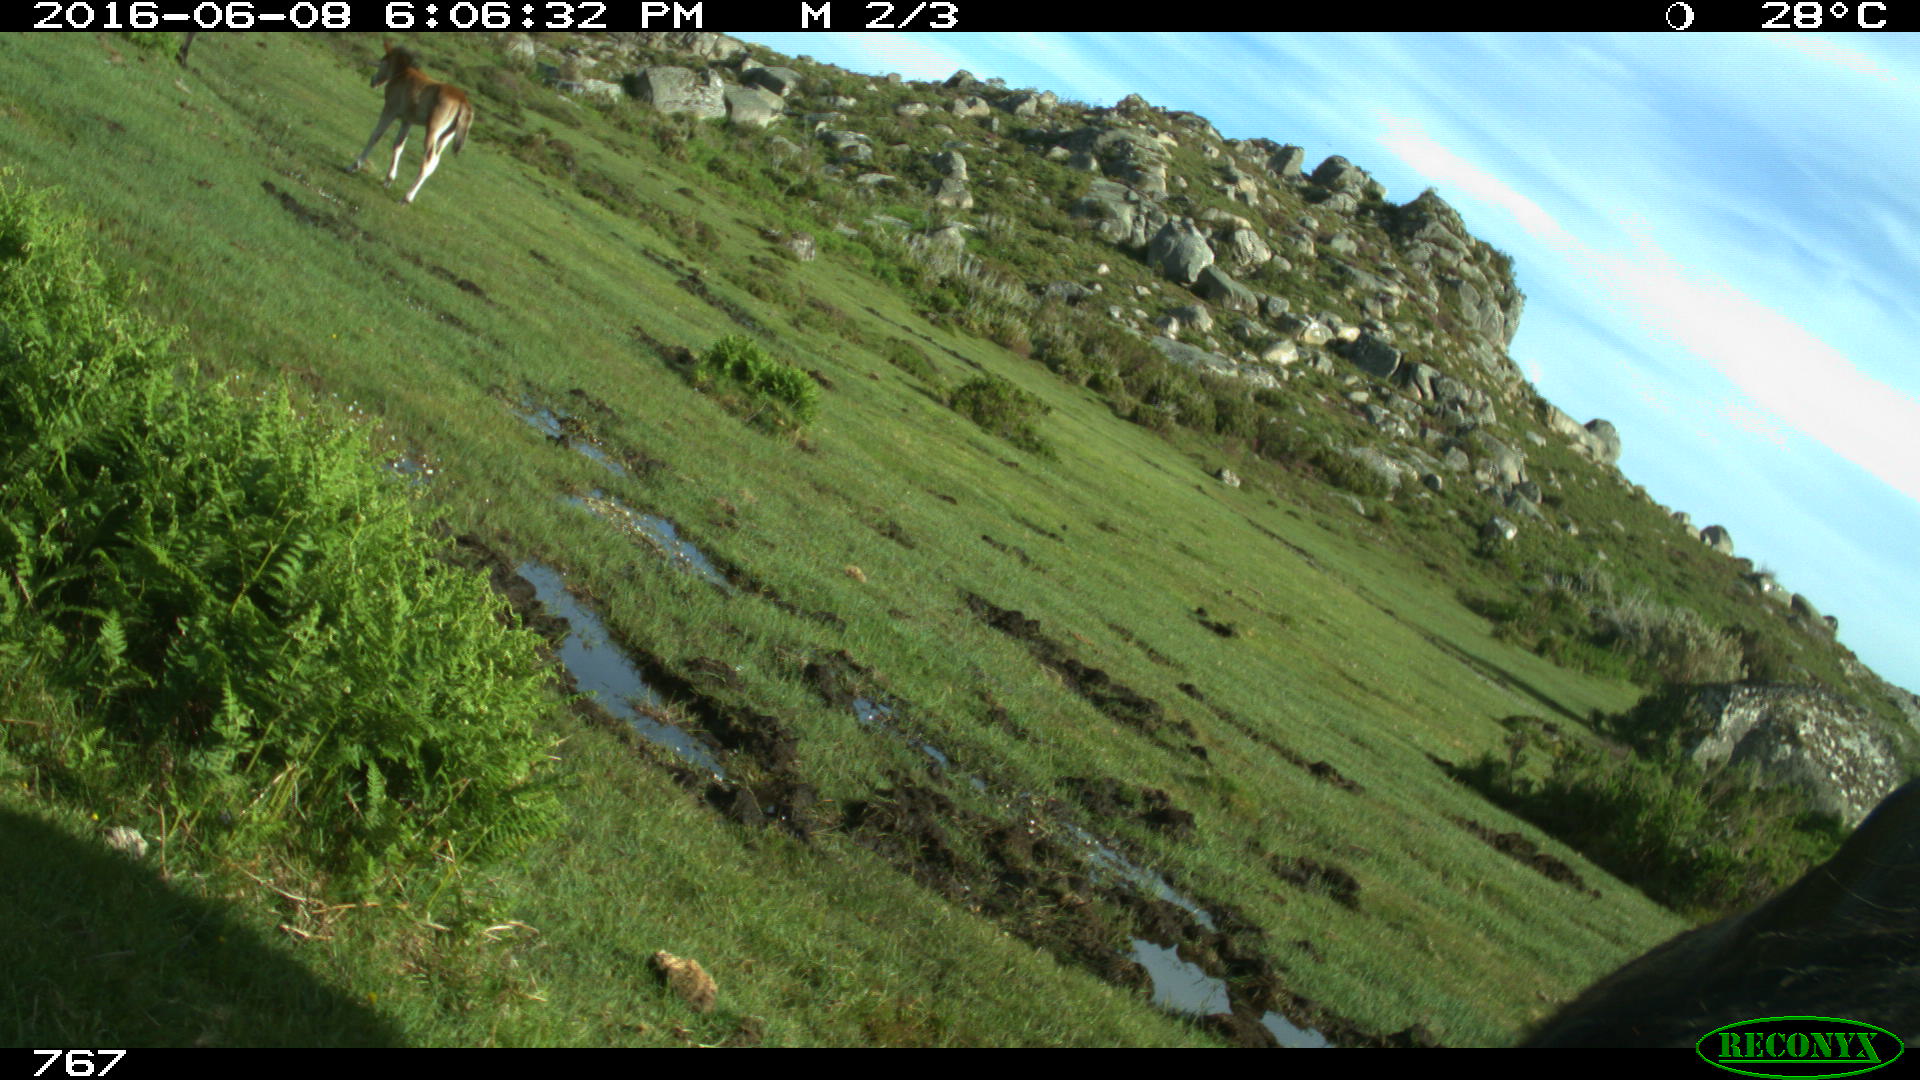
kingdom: Animalia
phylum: Chordata
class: Mammalia
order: Perissodactyla
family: Equidae
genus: Equus
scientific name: Equus caballus
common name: Horse
